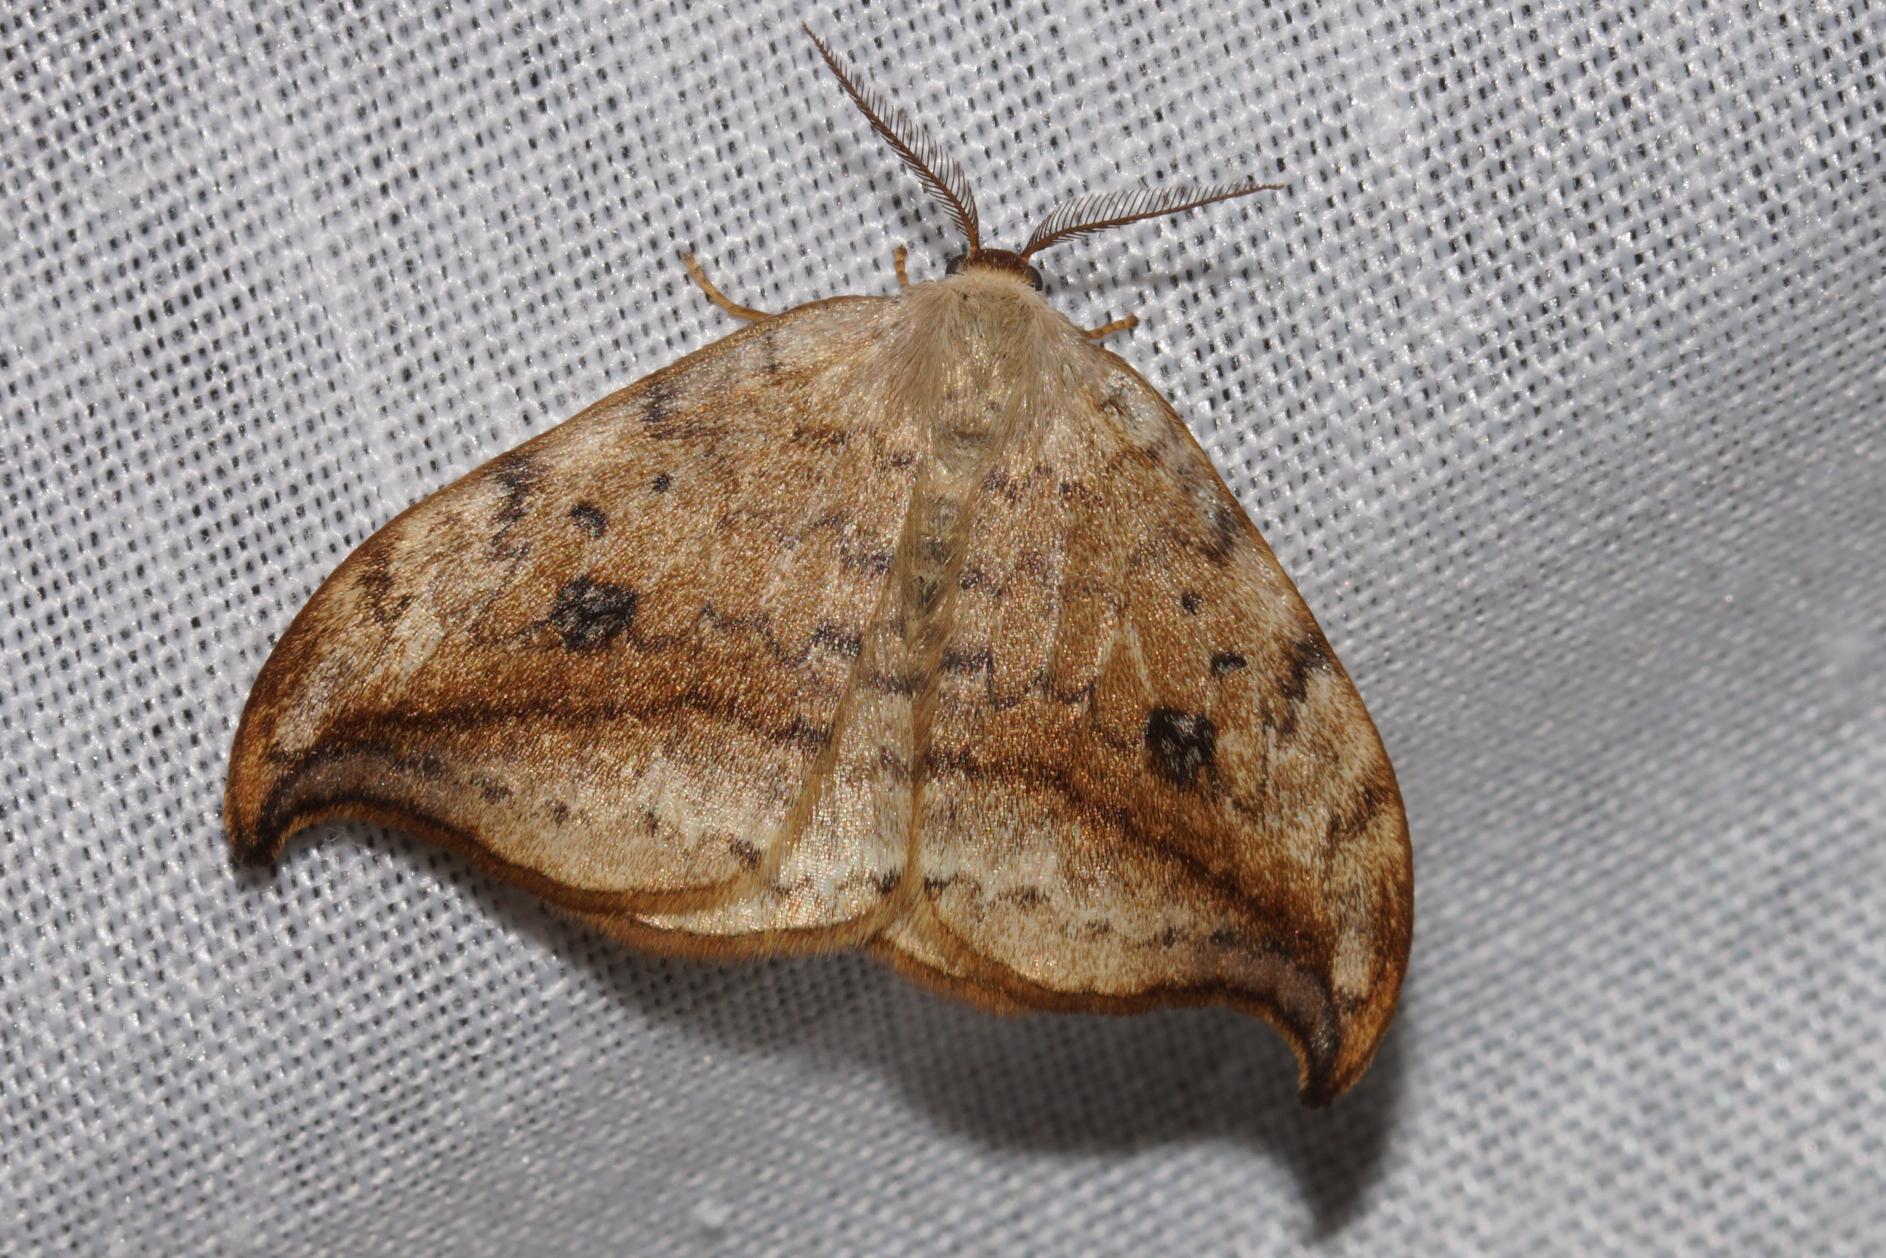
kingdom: Animalia
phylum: Arthropoda
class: Insecta
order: Lepidoptera
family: Drepanidae
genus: Drepana
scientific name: Drepana falcataria
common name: Birkeseglvinge
